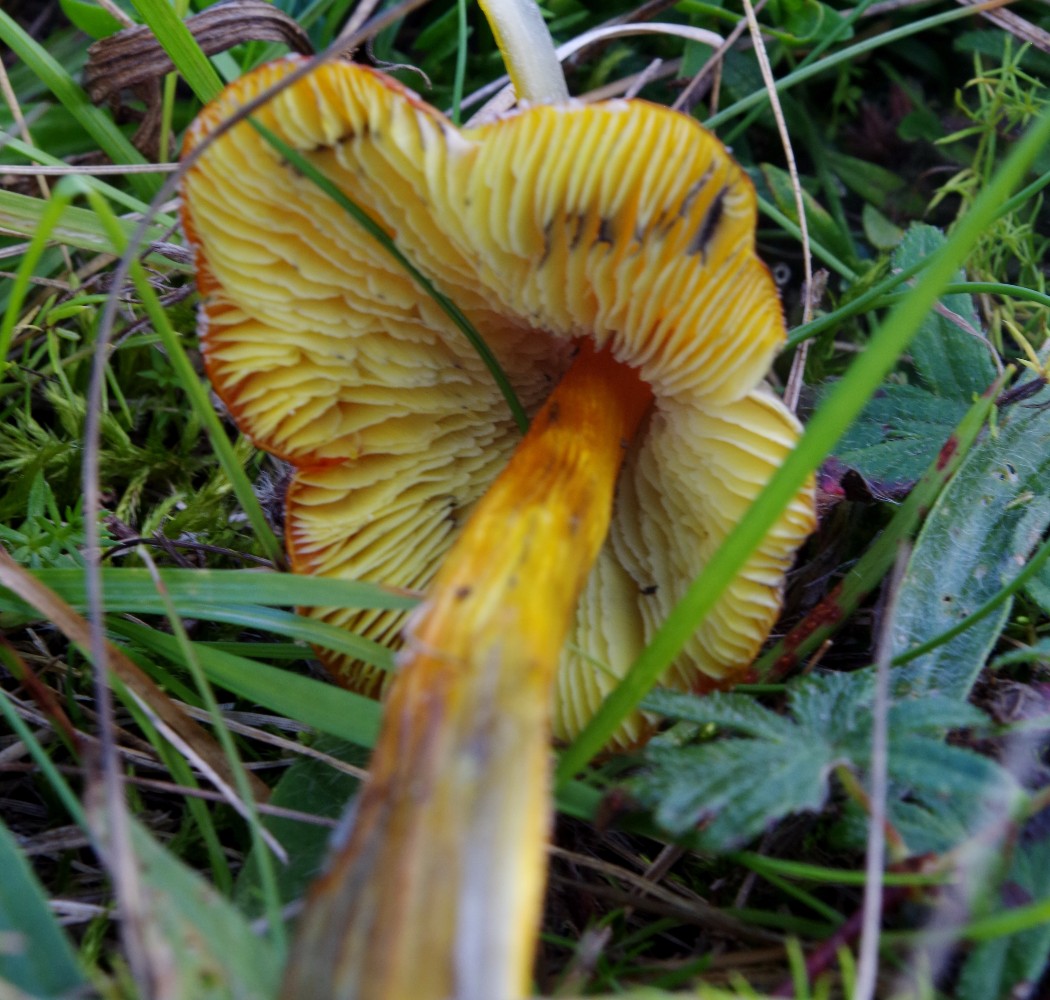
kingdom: Fungi
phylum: Basidiomycota
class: Agaricomycetes
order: Agaricales
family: Hygrophoraceae
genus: Hygrocybe
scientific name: Hygrocybe conica
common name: kegle-vokshat
